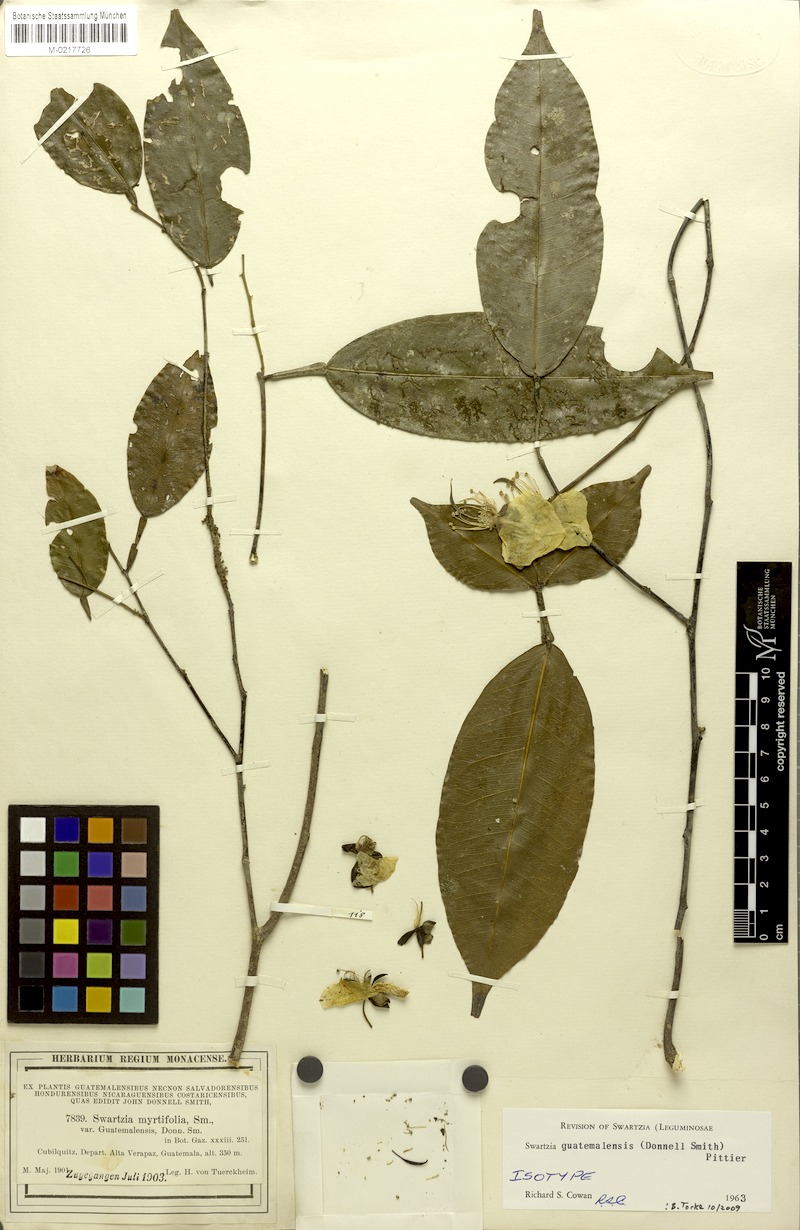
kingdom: Plantae
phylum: Tracheophyta
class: Magnoliopsida
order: Fabales
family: Fabaceae
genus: Swartzia
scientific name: Swartzia guatemalensis
